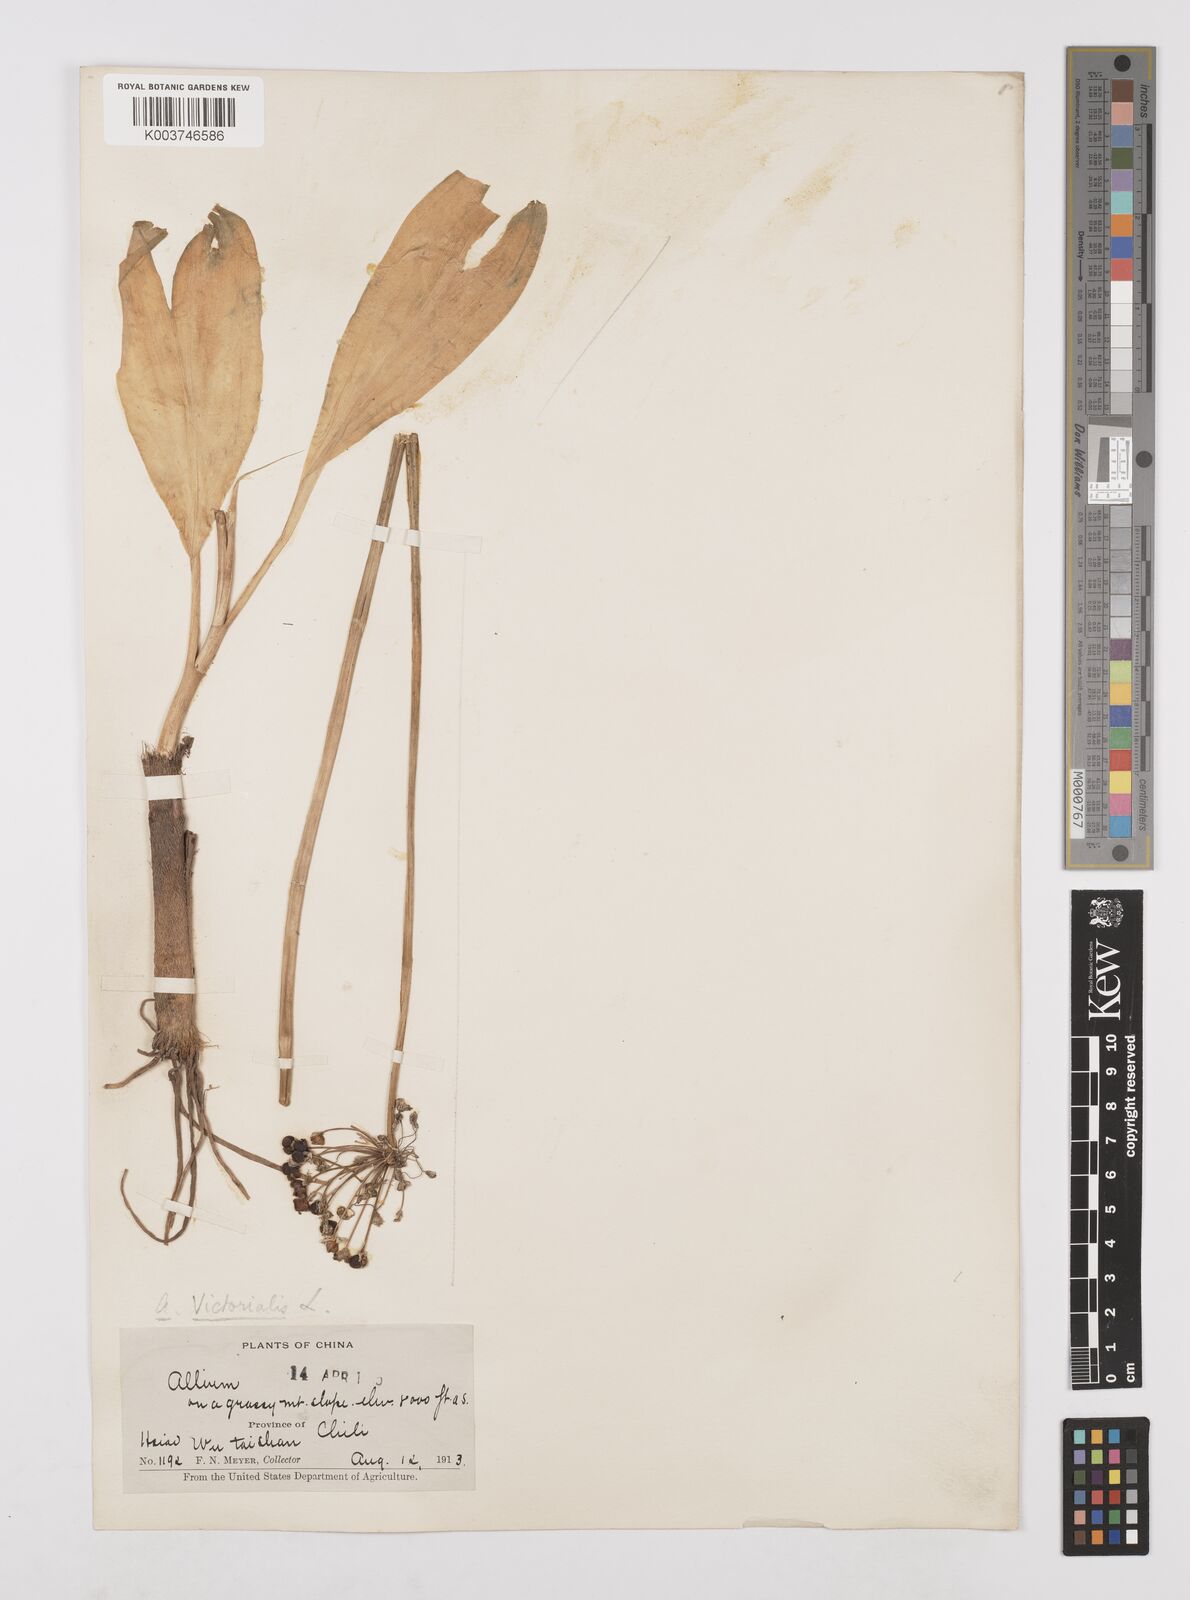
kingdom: Plantae
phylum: Tracheophyta
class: Liliopsida
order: Asparagales
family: Amaryllidaceae
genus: Allium
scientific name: Allium victorialis
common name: Alpine leek
